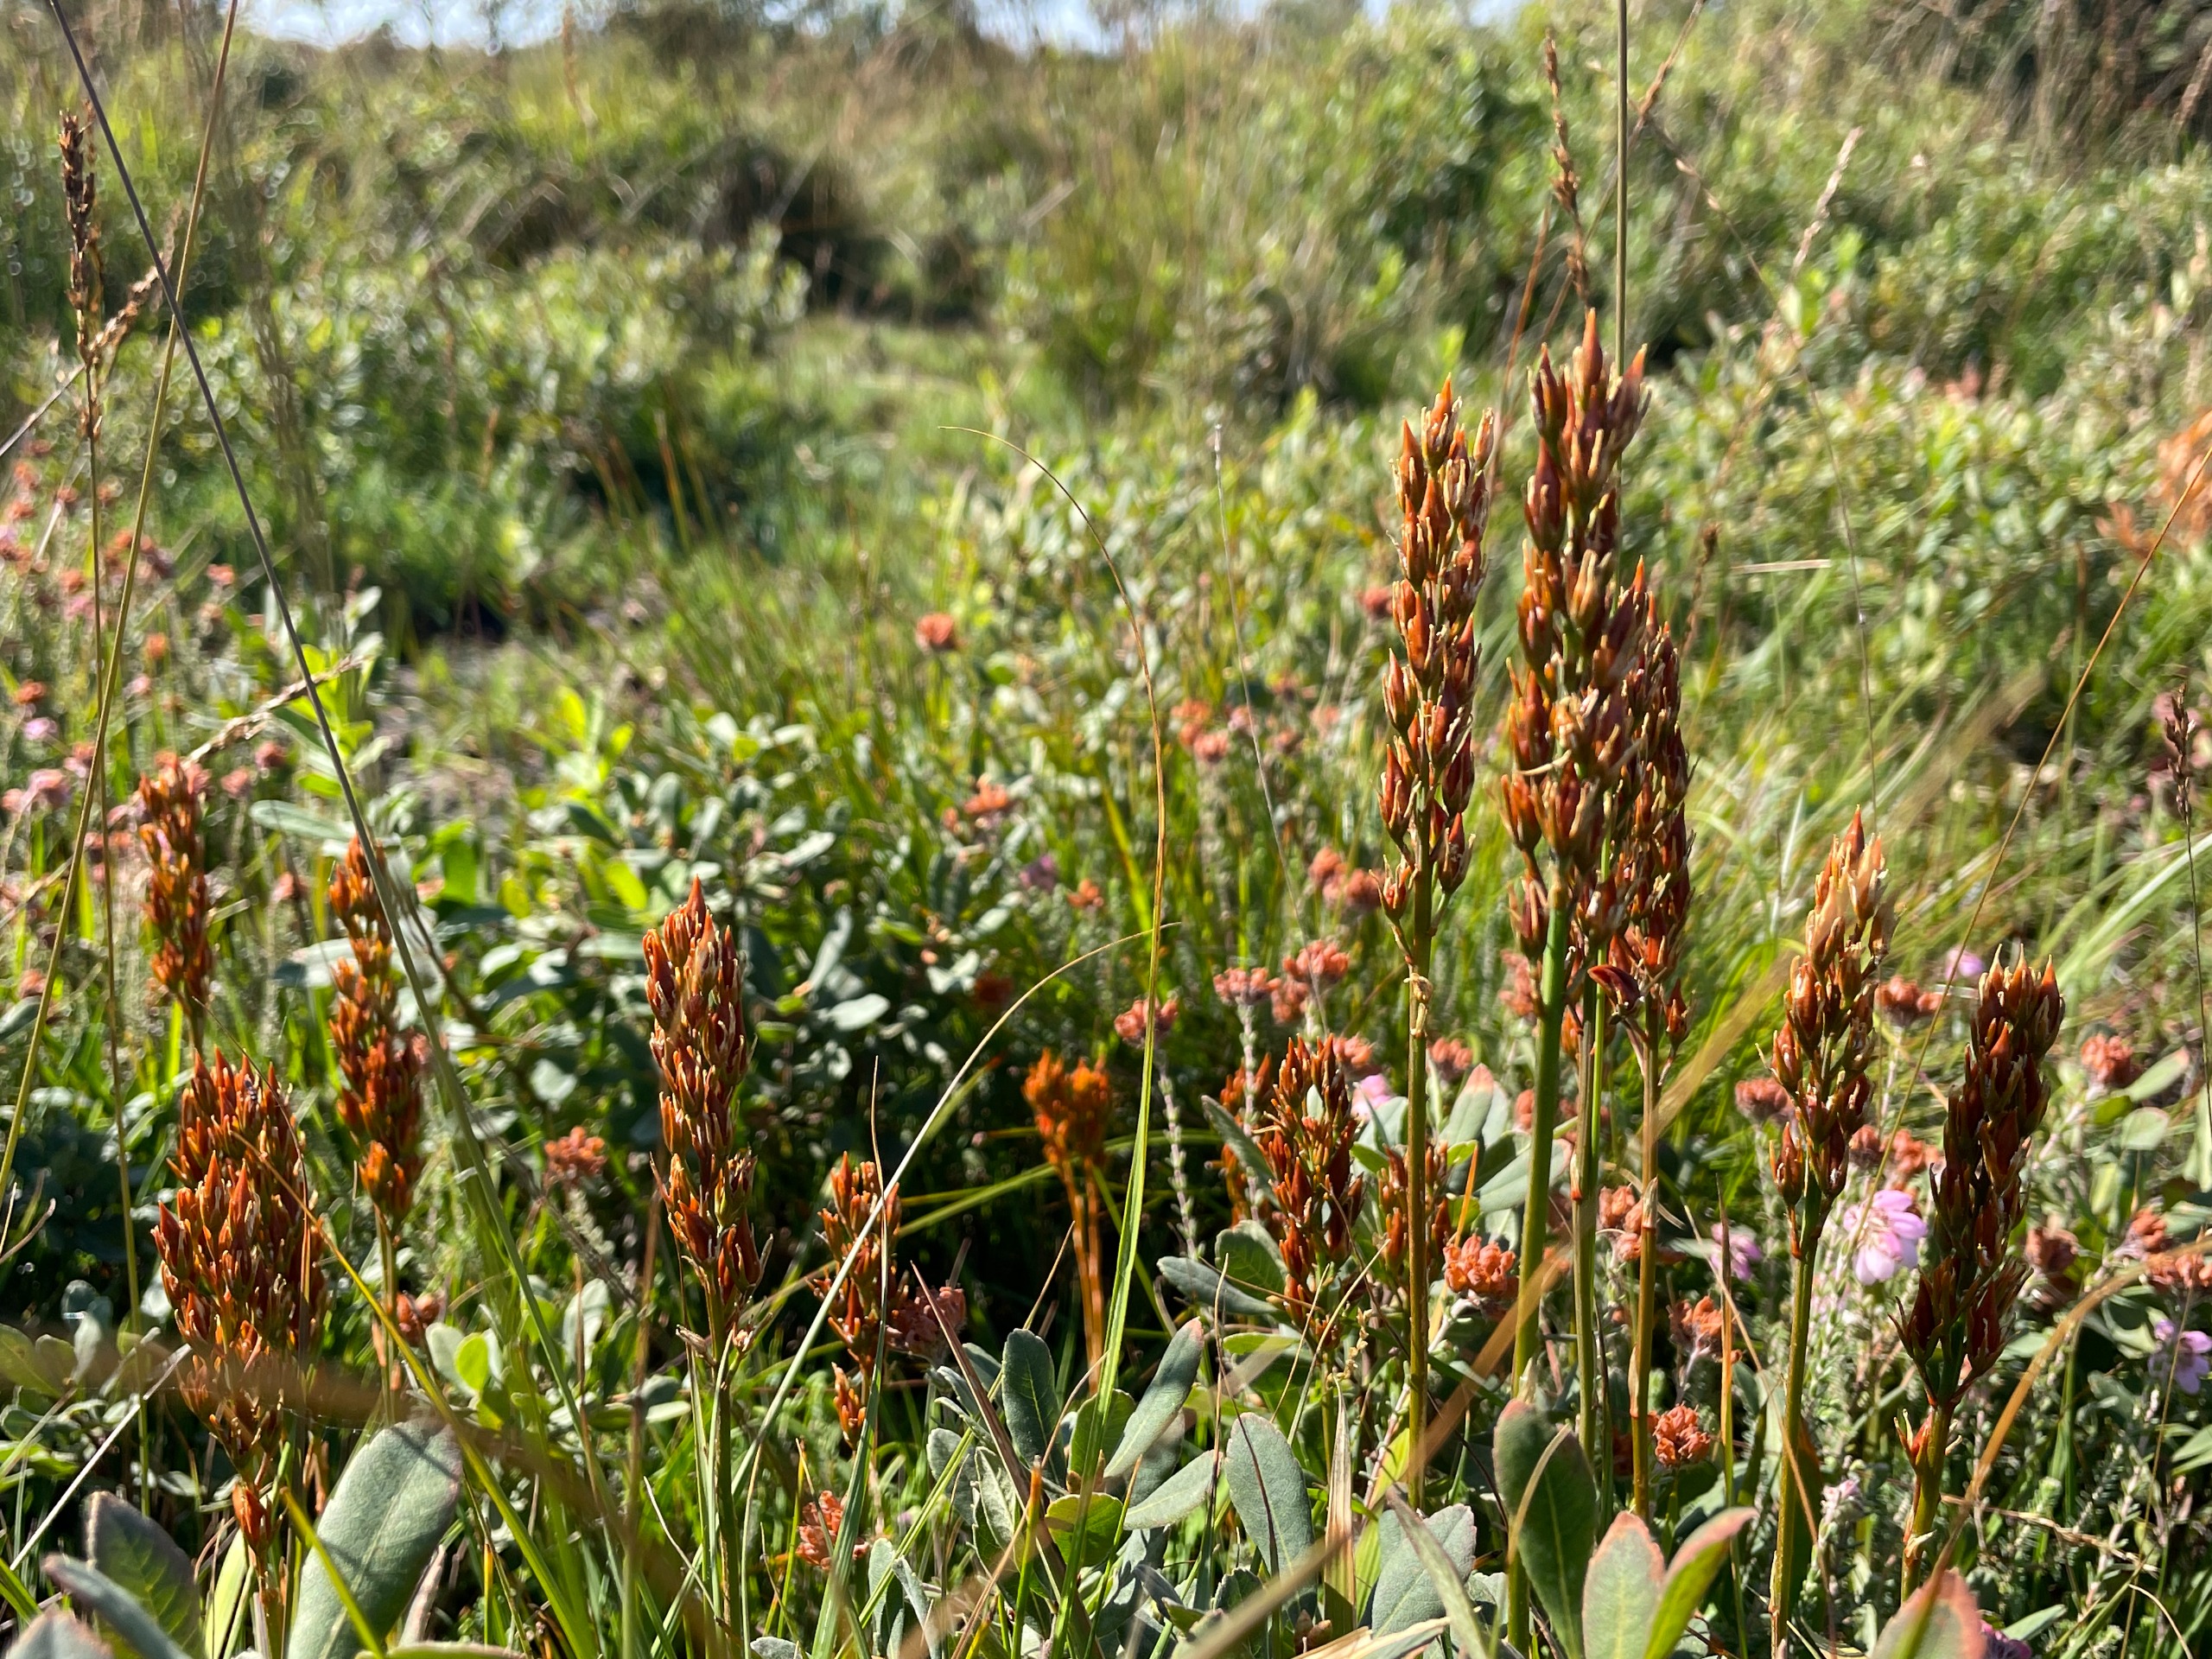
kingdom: Plantae
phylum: Tracheophyta
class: Liliopsida
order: Dioscoreales
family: Nartheciaceae
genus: Narthecium
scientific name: Narthecium ossifragum
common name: Benbræk
